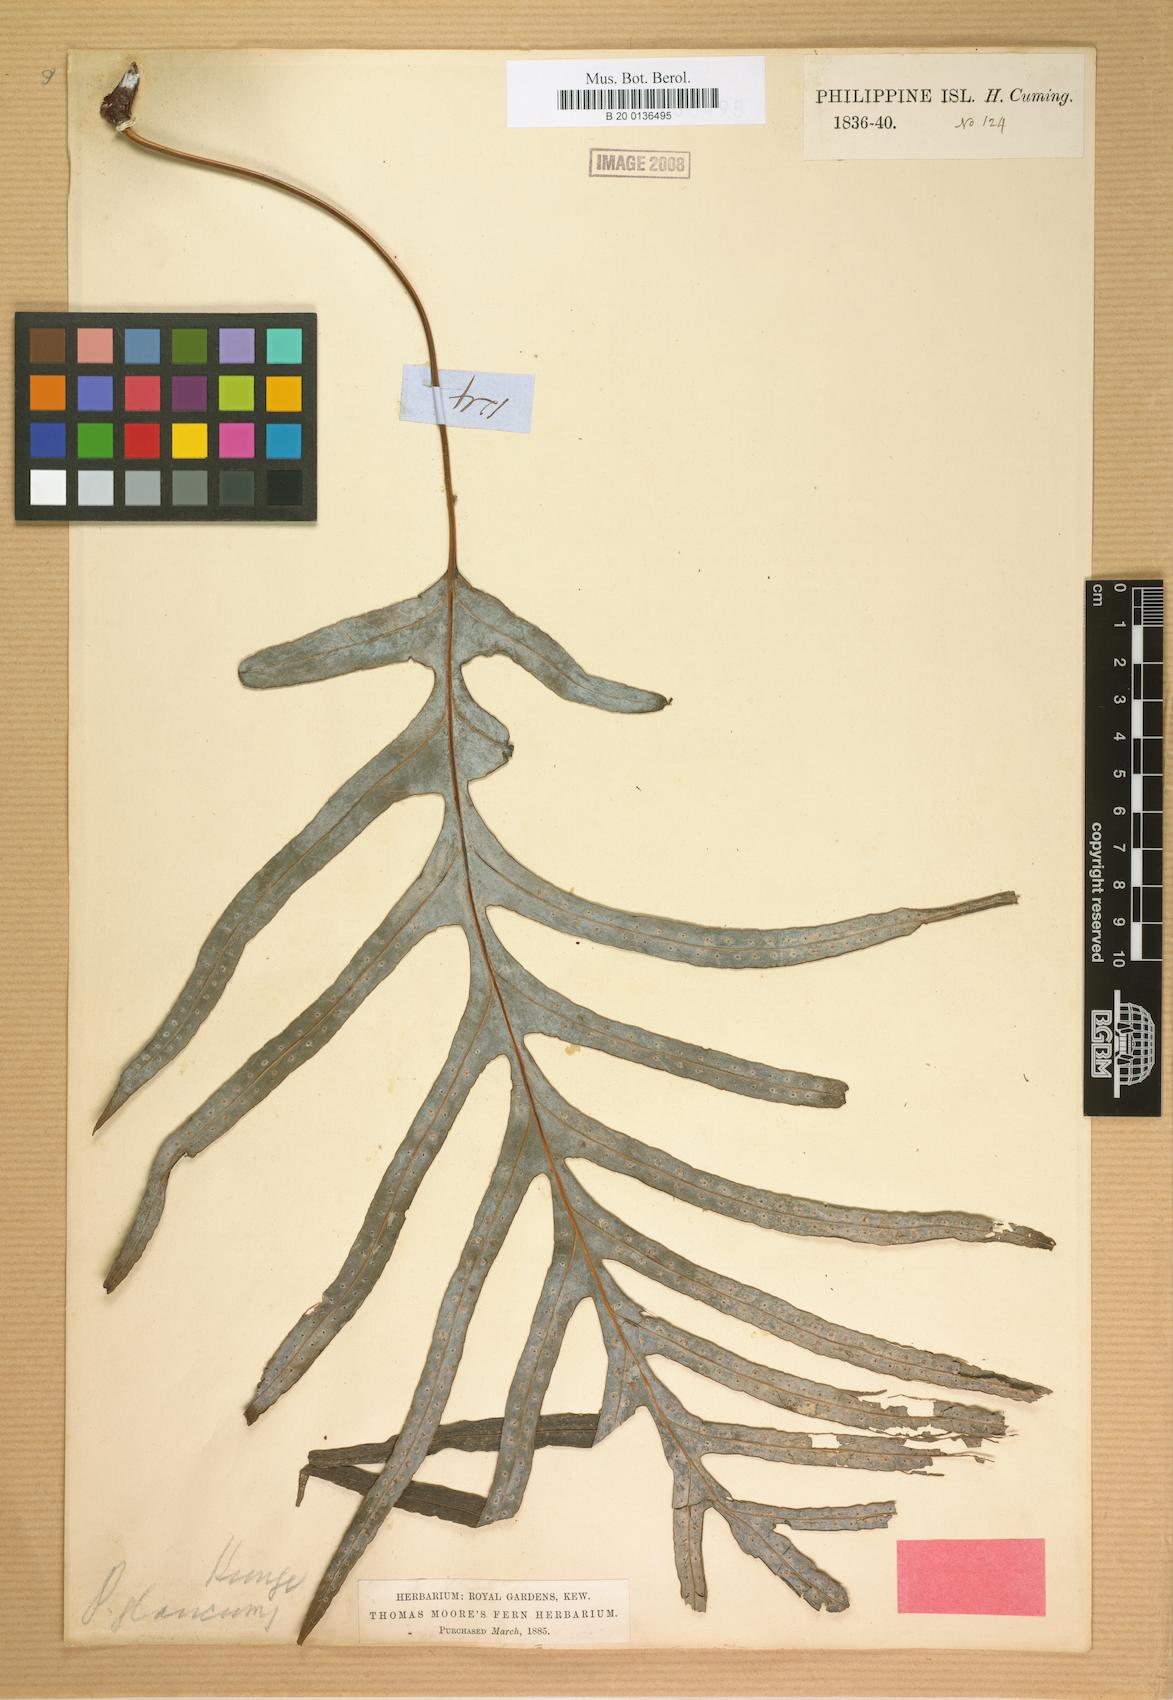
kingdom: Plantae
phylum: Tracheophyta
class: Polypodiopsida
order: Polypodiales
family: Polypodiaceae
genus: Selliguea
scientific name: Selliguea glauca
